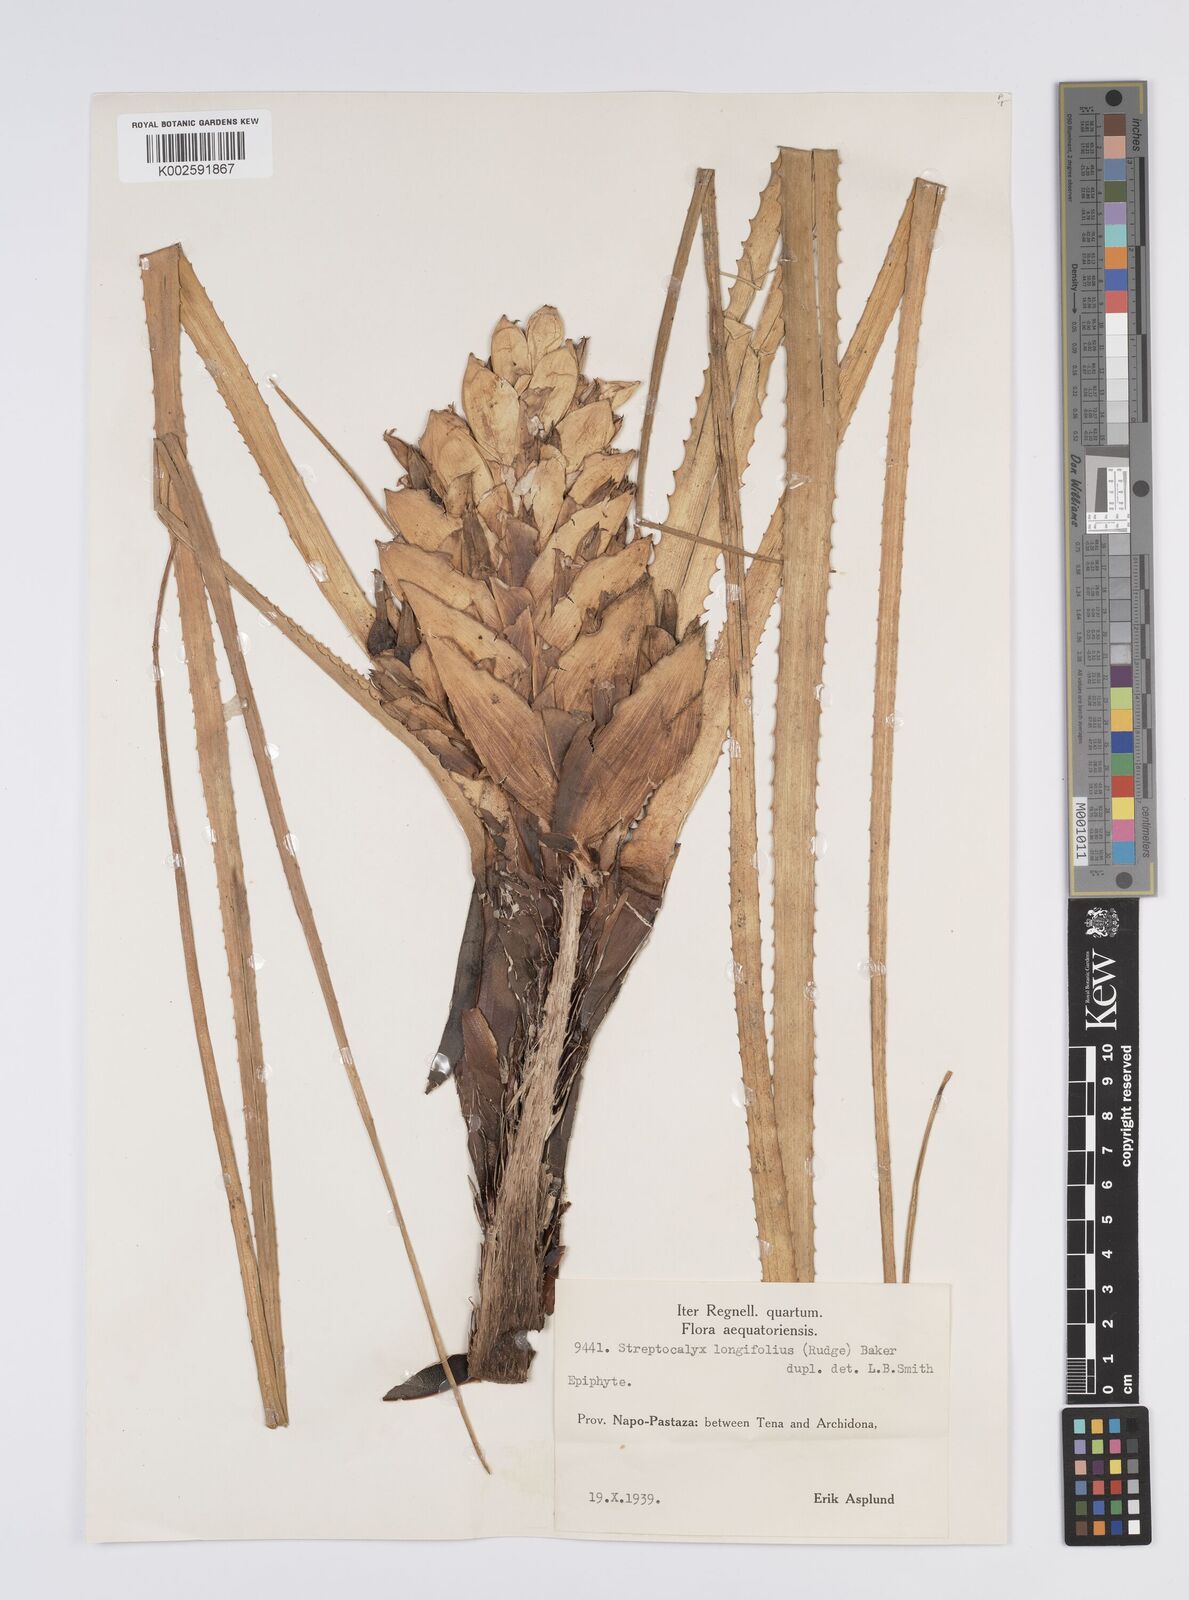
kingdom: Plantae
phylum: Tracheophyta
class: Liliopsida
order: Poales
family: Bromeliaceae
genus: Aechmea
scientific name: Aechmea longifolia
